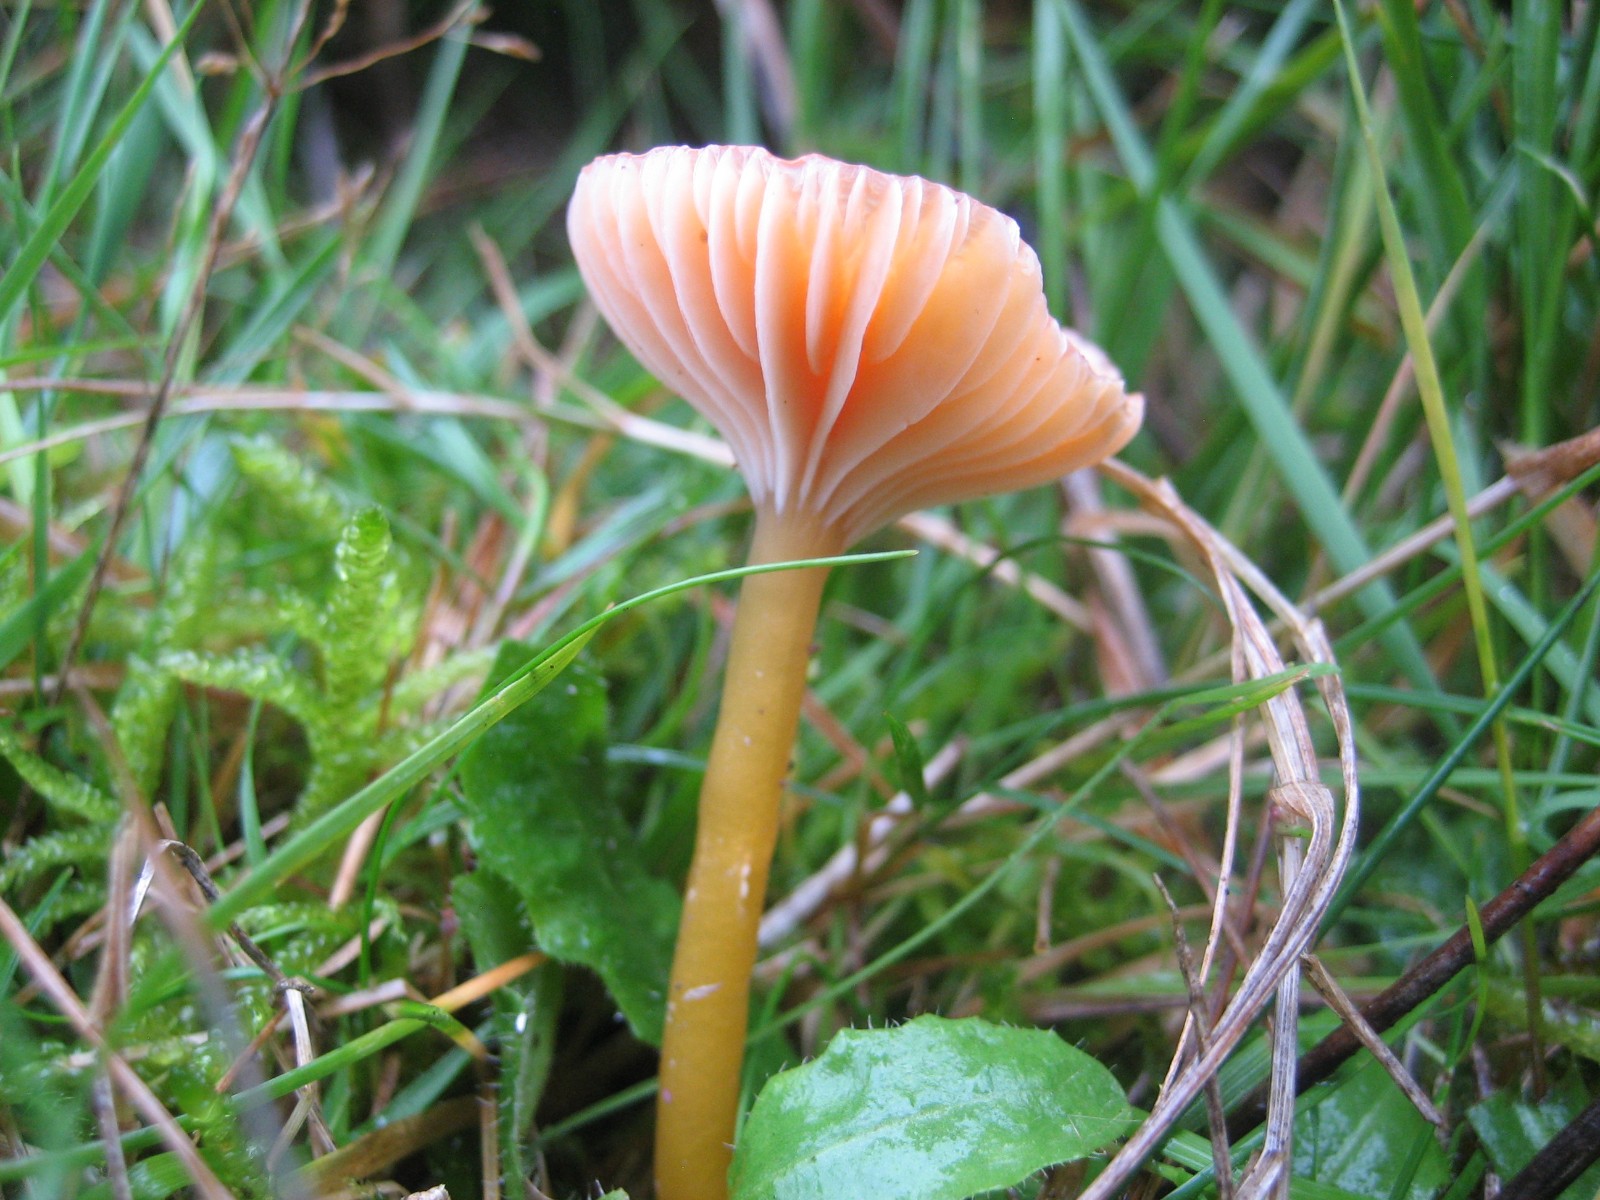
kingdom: Fungi
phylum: Basidiomycota
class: Agaricomycetes
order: Agaricales
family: Hygrophoraceae
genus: Gliophorus
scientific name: Gliophorus laetus
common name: brusk-vokshat
